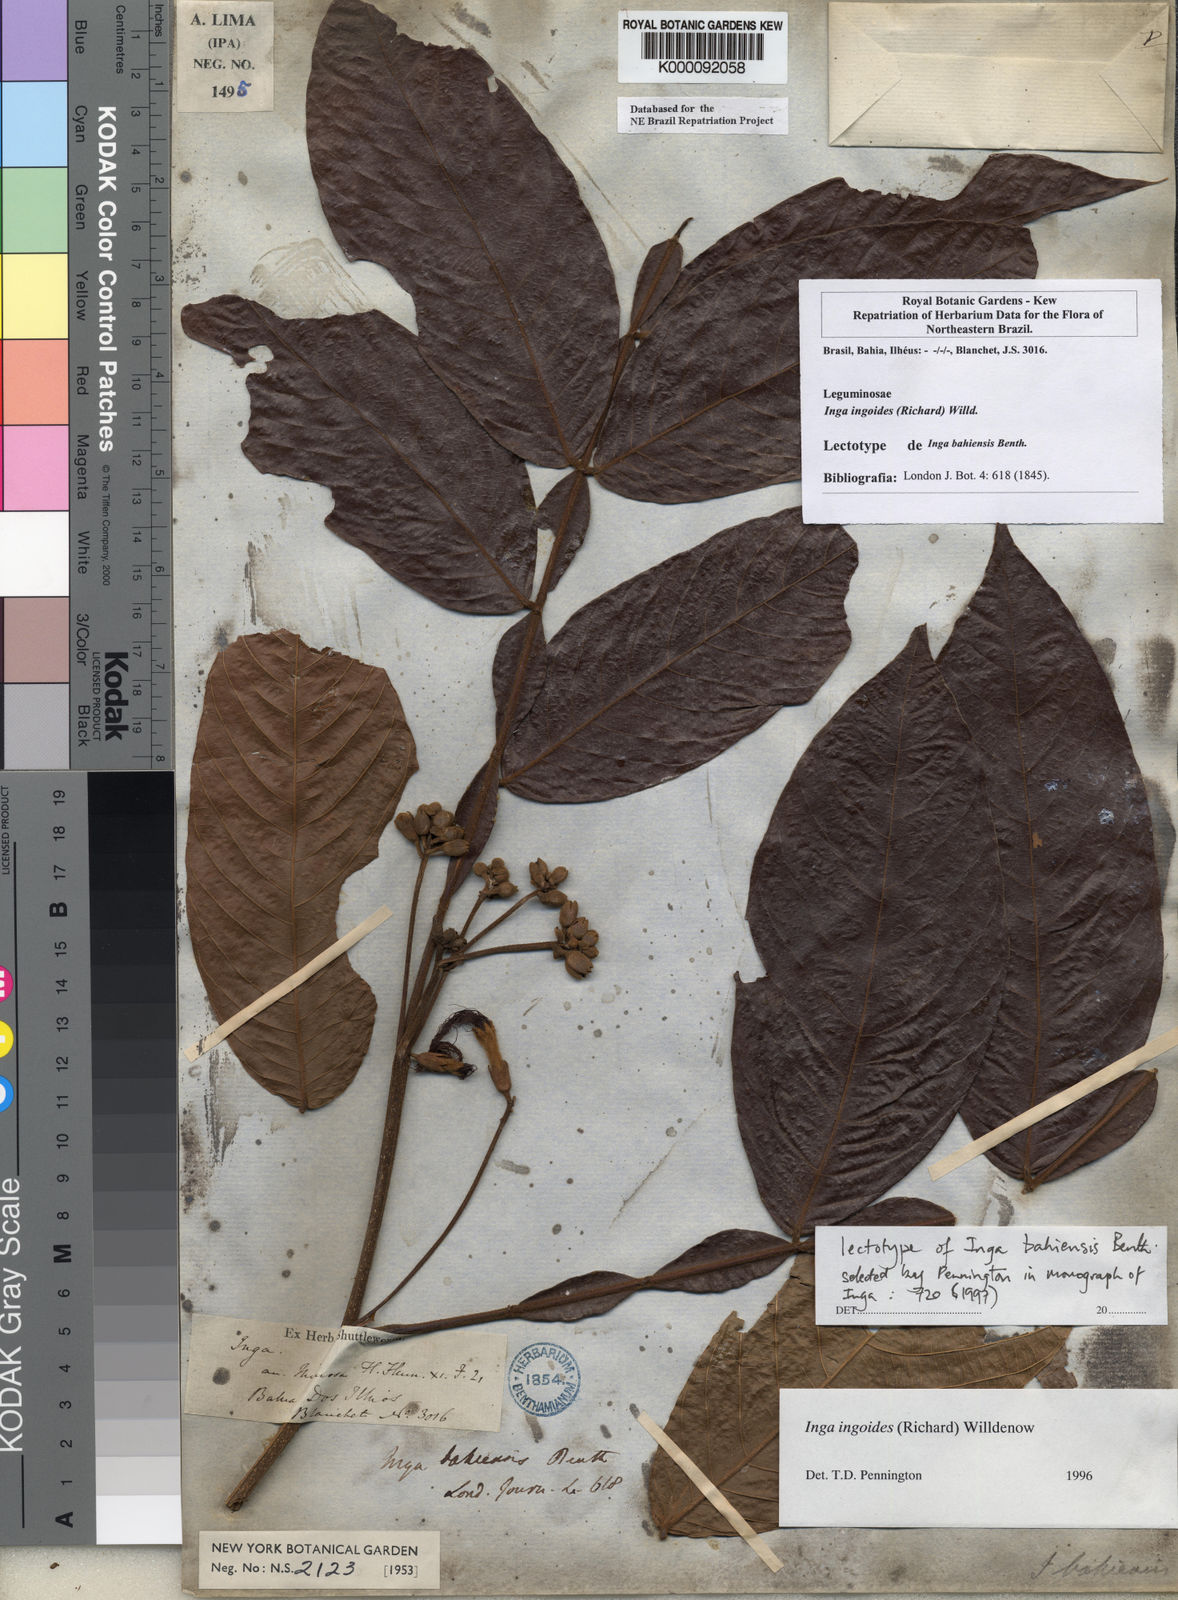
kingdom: Plantae
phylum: Tracheophyta
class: Magnoliopsida
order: Fabales
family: Fabaceae
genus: Inga
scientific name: Inga ingoides
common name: Spanish ash
